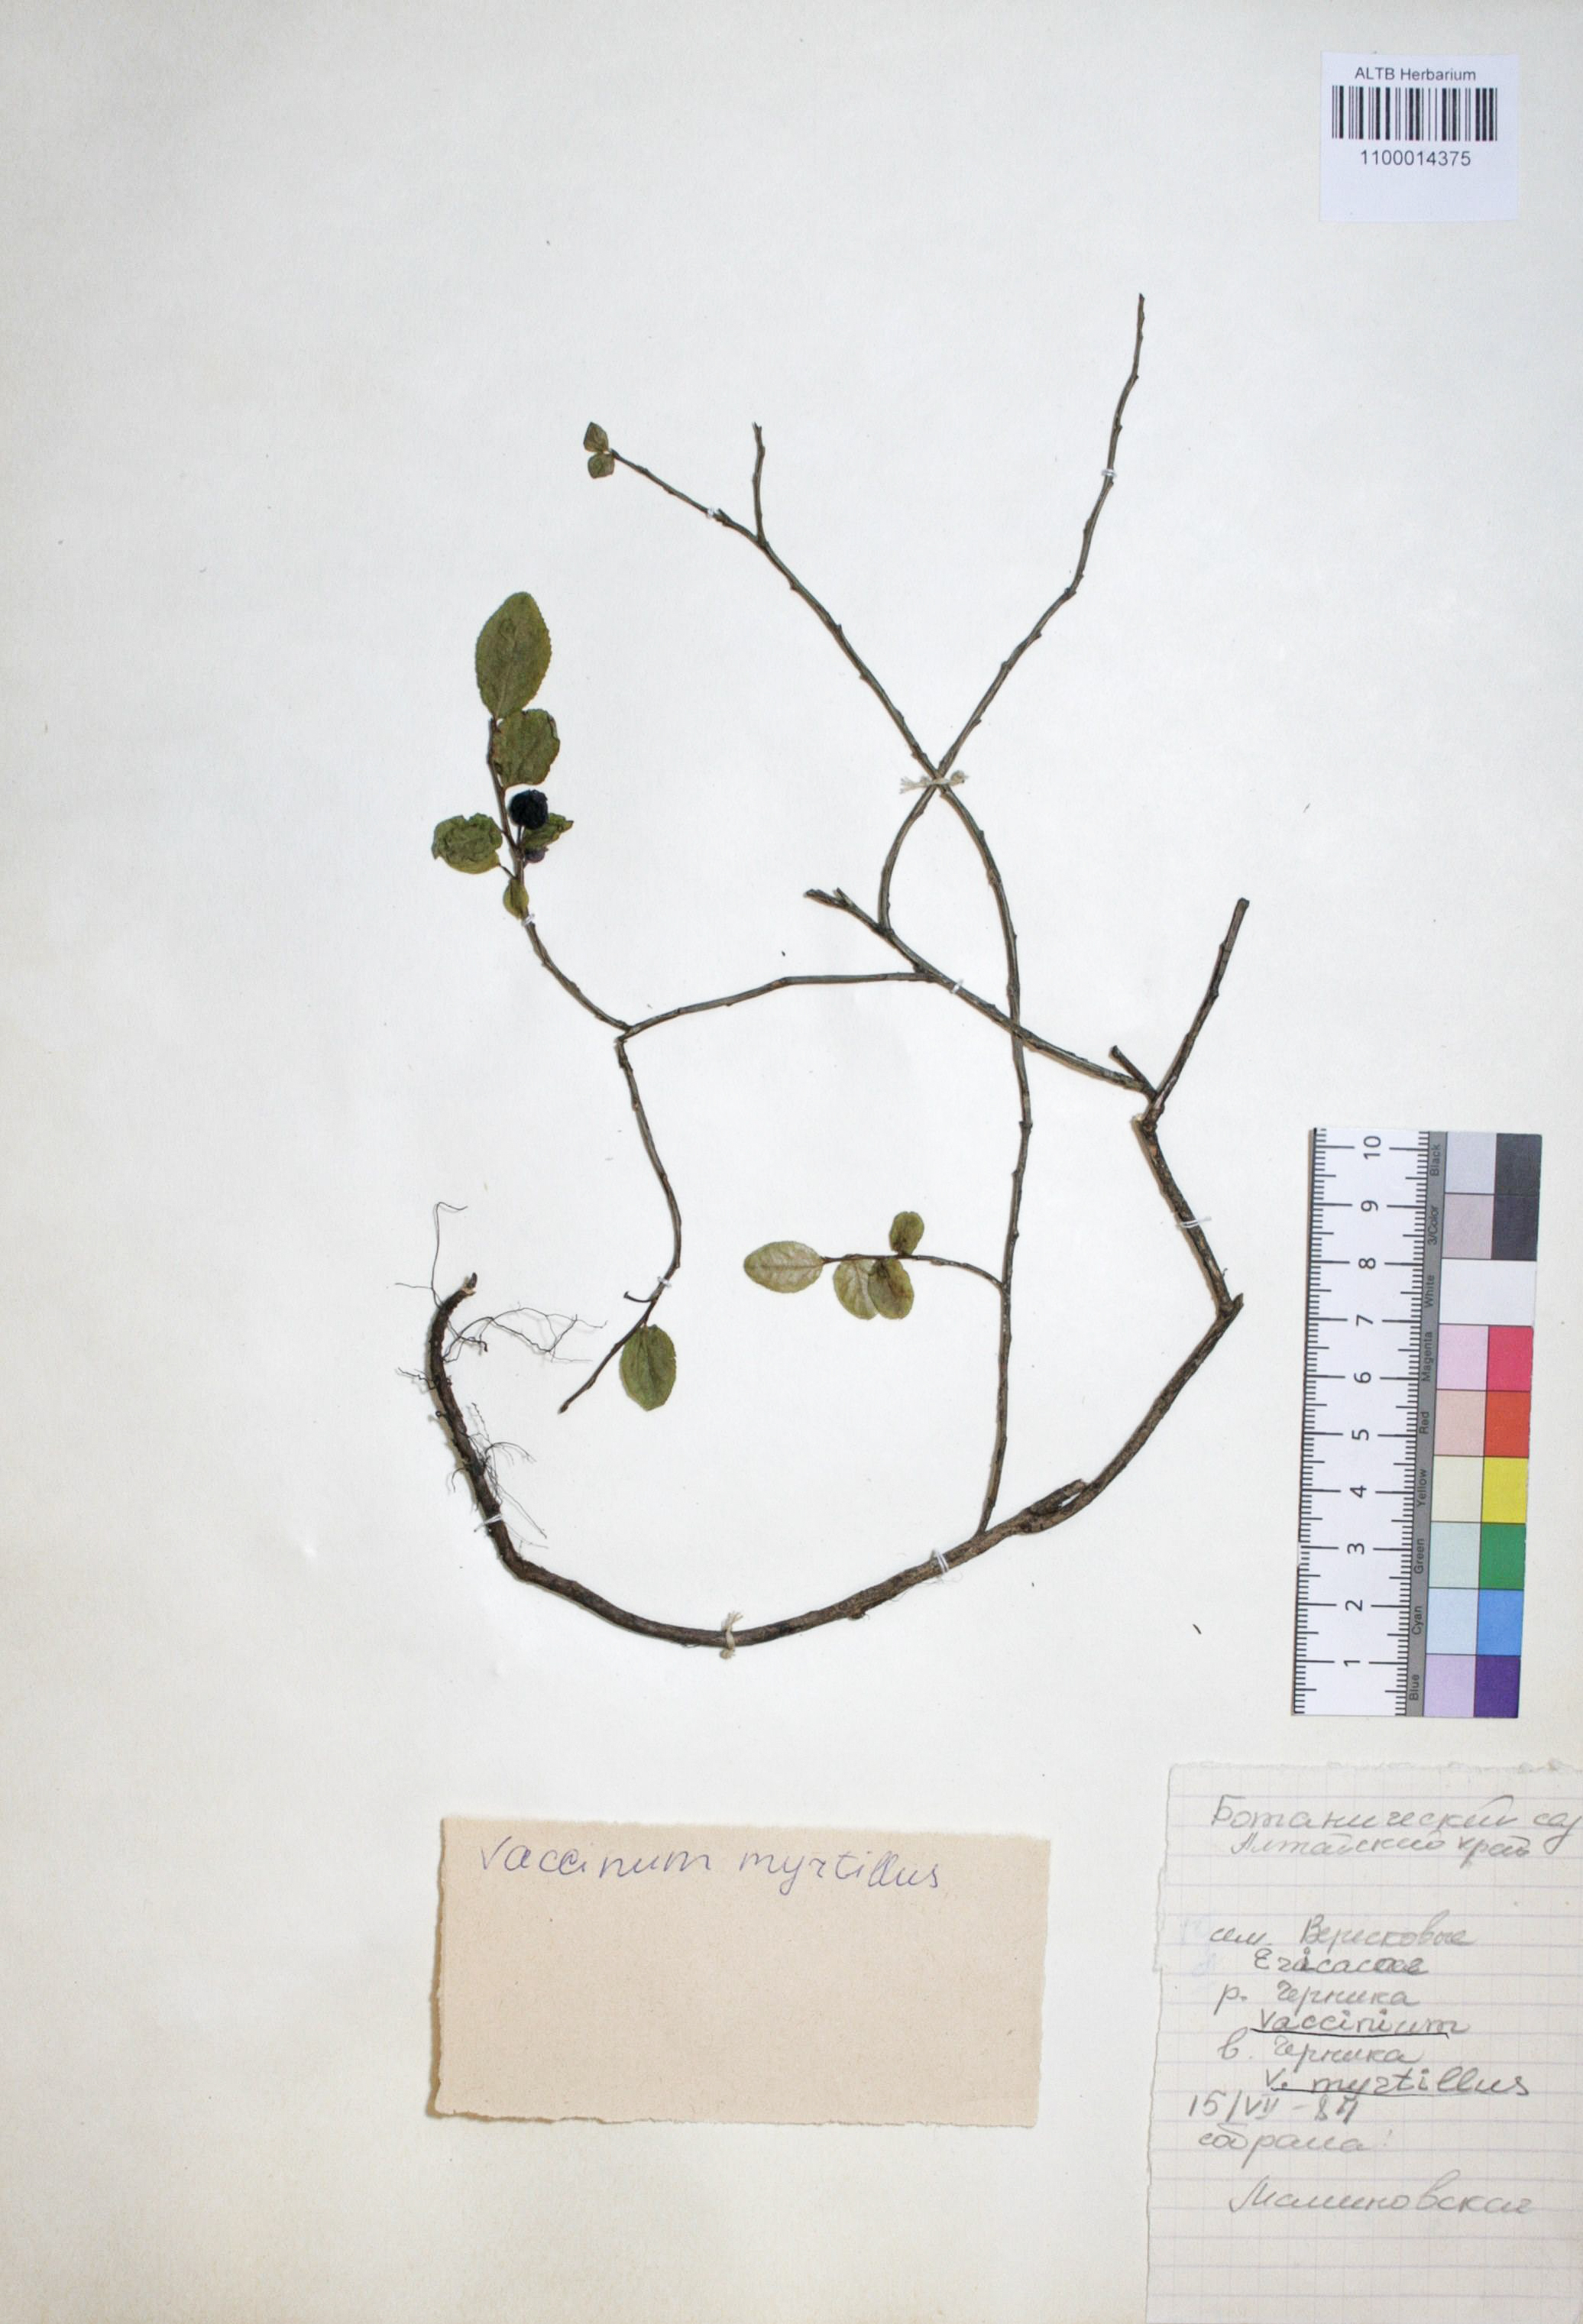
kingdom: Plantae
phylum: Tracheophyta
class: Magnoliopsida
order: Ericales
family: Ericaceae
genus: Vaccinium
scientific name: Vaccinium myrtillus
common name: Bilberry
